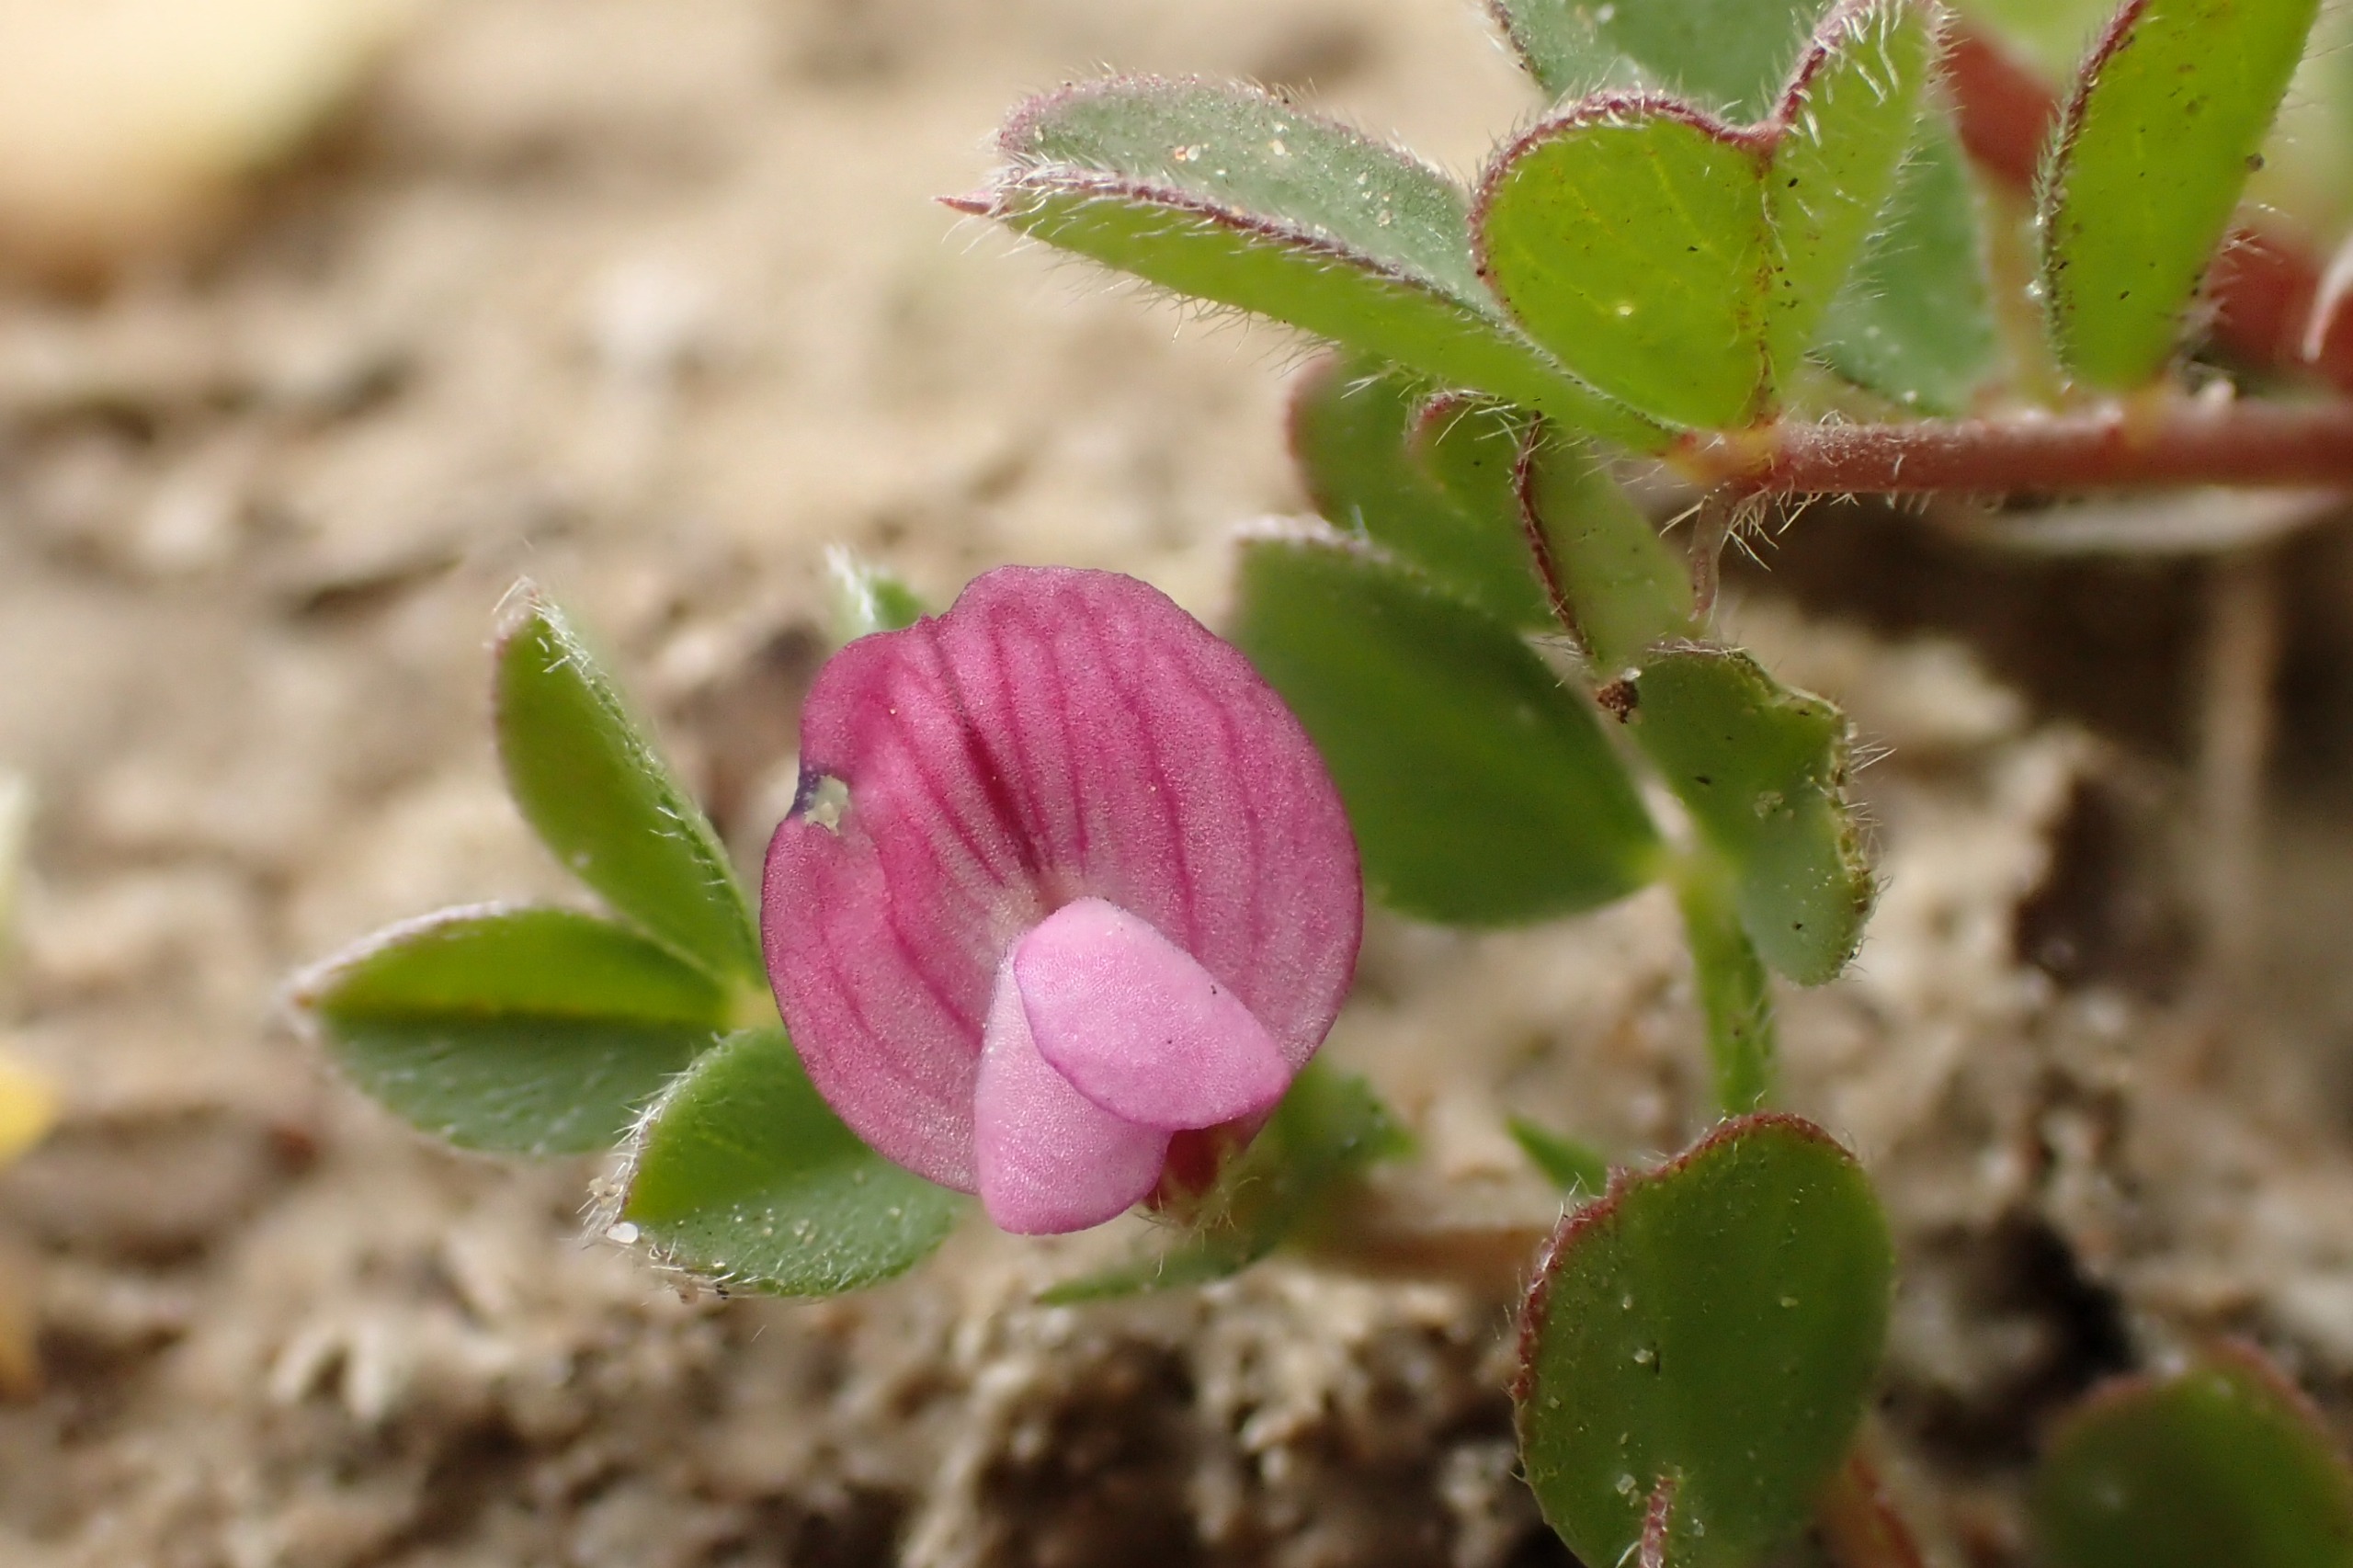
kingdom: Plantae
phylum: Tracheophyta
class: Magnoliopsida
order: Fabales
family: Fabaceae
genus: Vicia
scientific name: Vicia lathyroides
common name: Vår-vikke
